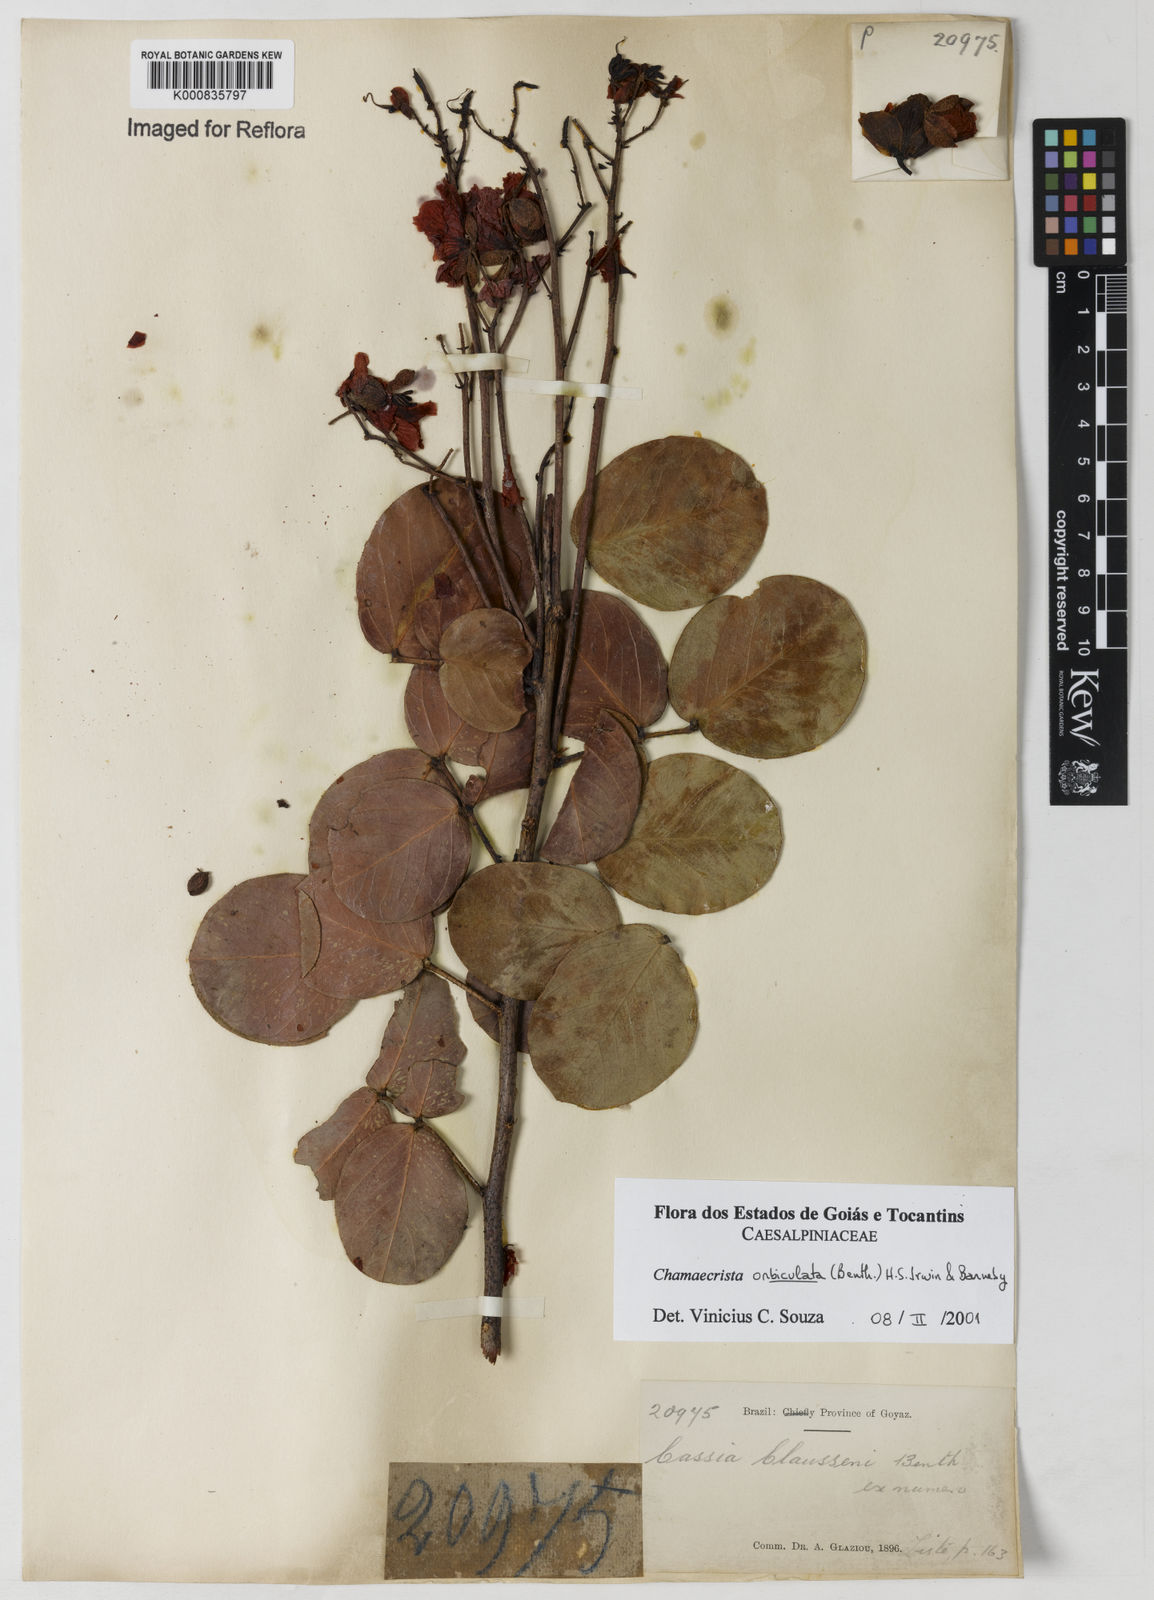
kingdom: Plantae
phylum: Tracheophyta
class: Magnoliopsida
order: Fabales
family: Fabaceae
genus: Chamaecrista
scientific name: Chamaecrista orbiculata
